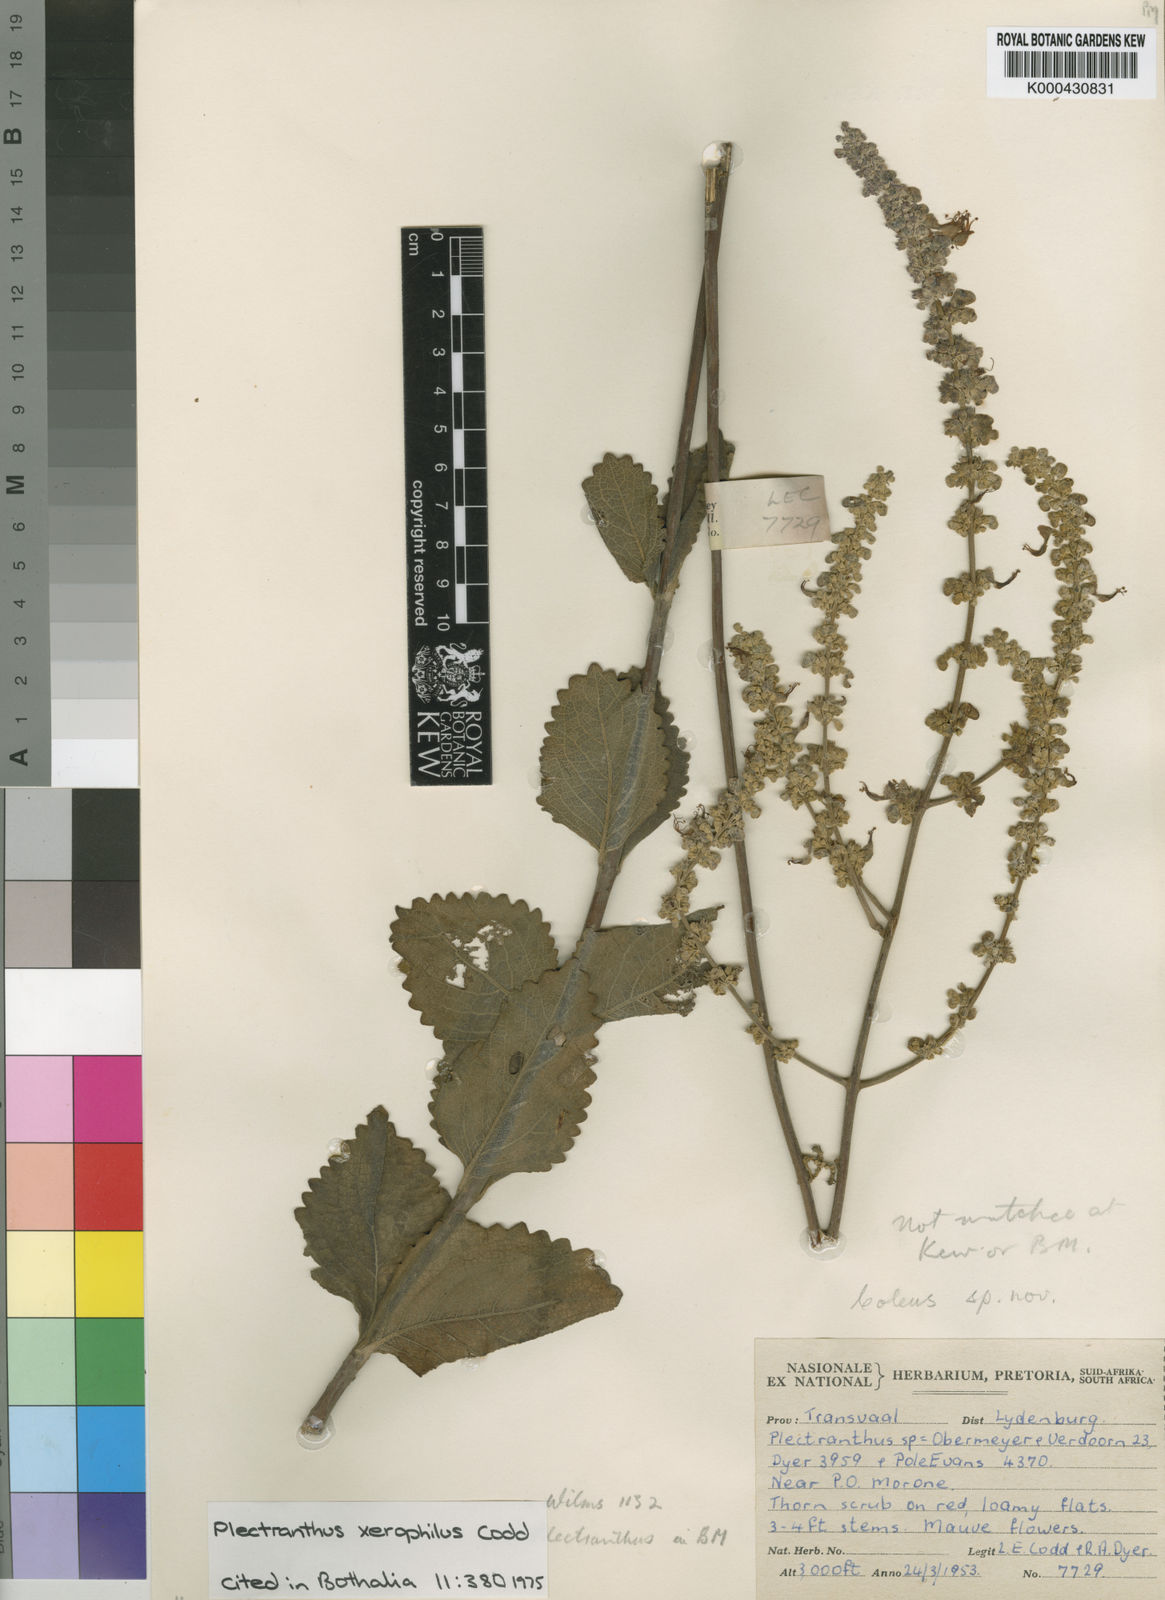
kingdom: Plantae
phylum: Tracheophyta
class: Magnoliopsida
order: Lamiales
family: Lamiaceae
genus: Coleus
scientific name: Coleus xerophilus
